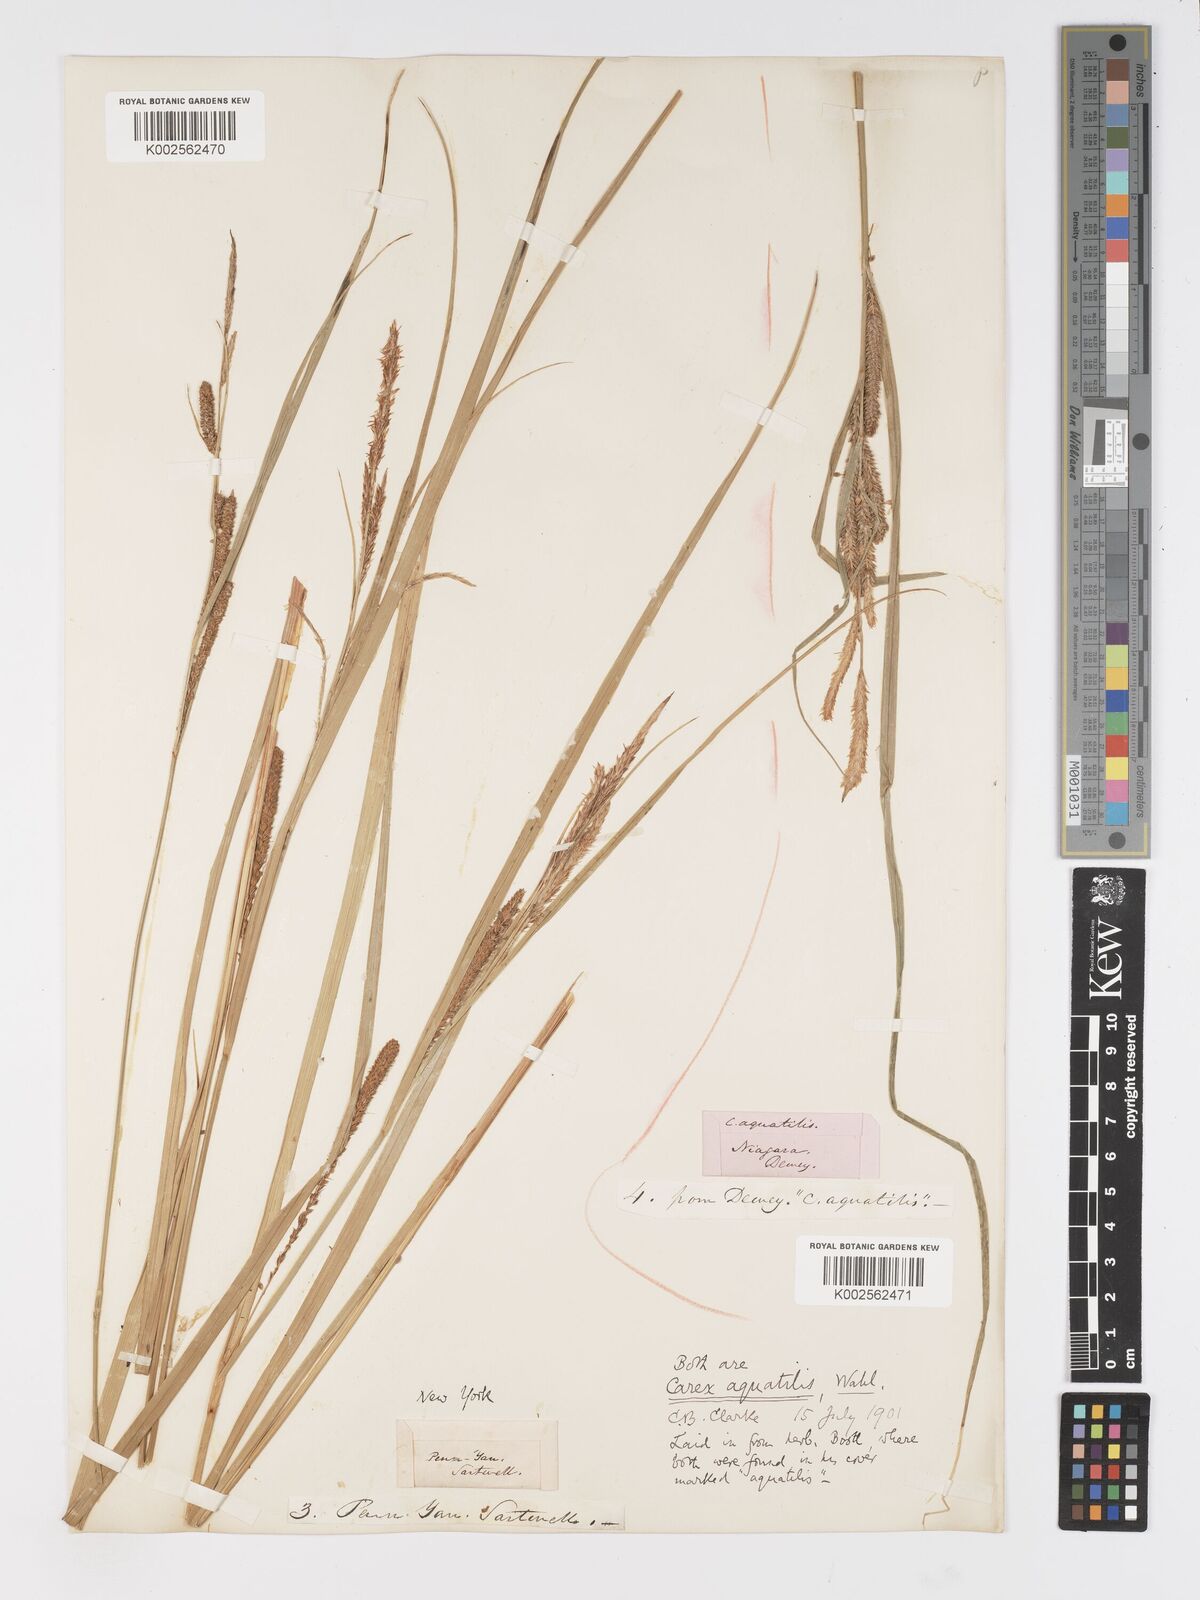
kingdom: Plantae
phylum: Tracheophyta
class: Liliopsida
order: Poales
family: Cyperaceae
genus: Carex
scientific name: Carex
